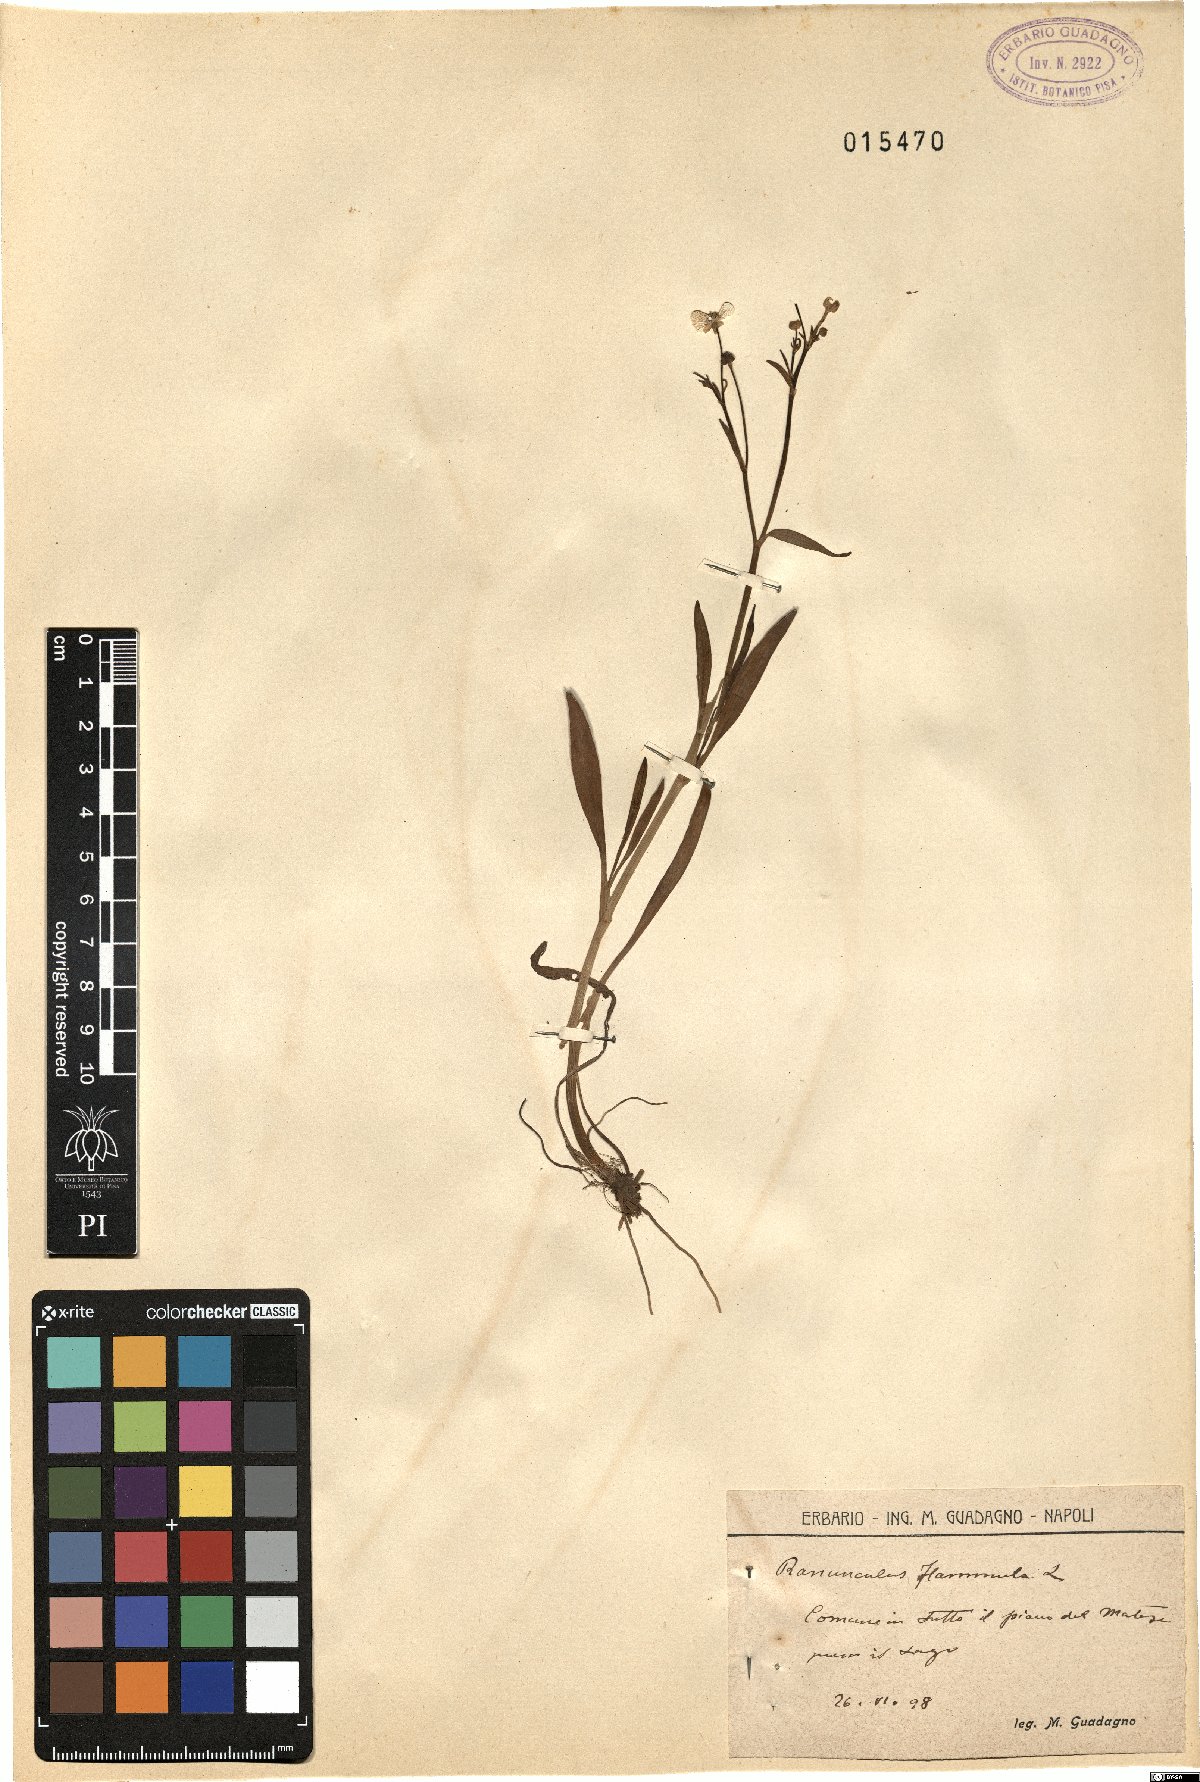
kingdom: Plantae
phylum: Tracheophyta
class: Magnoliopsida
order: Ranunculales
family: Ranunculaceae
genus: Ranunculus
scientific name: Ranunculus flammula
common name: Lesser spearwort
